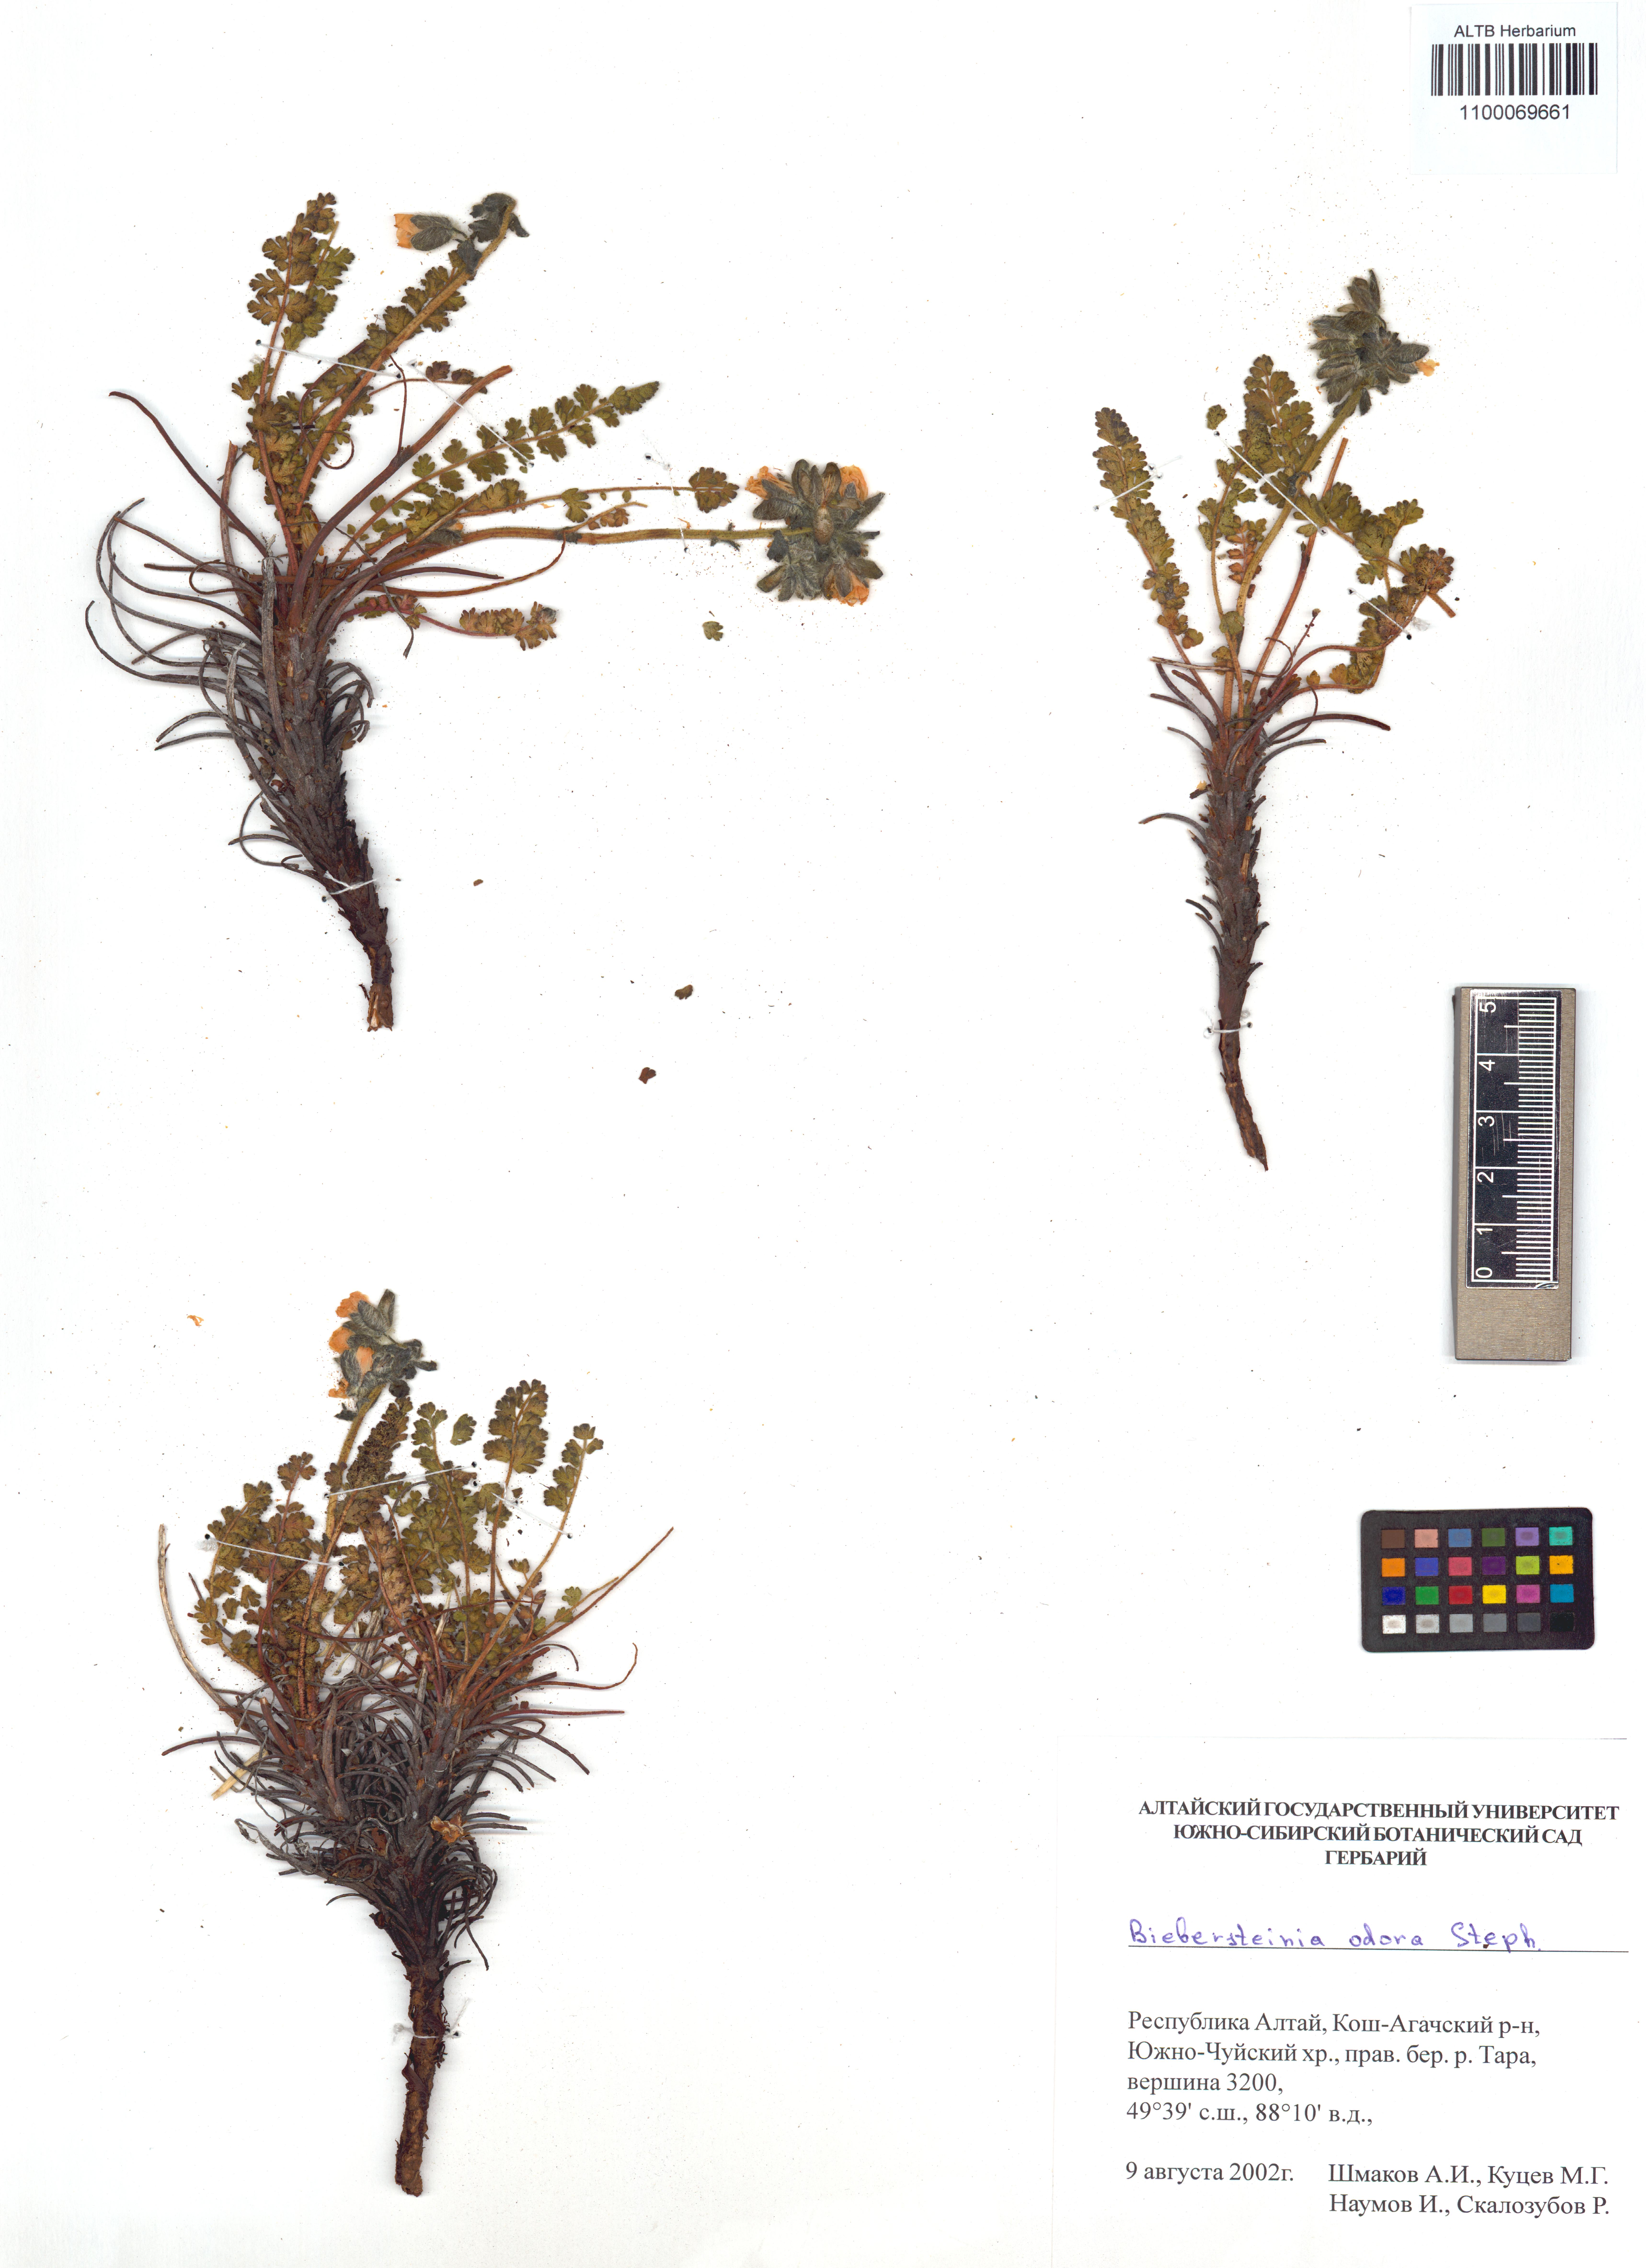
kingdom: Plantae
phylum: Tracheophyta
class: Magnoliopsida
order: Sapindales
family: Biebersteiniaceae
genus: Biebersteinia
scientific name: Biebersteinia odora
